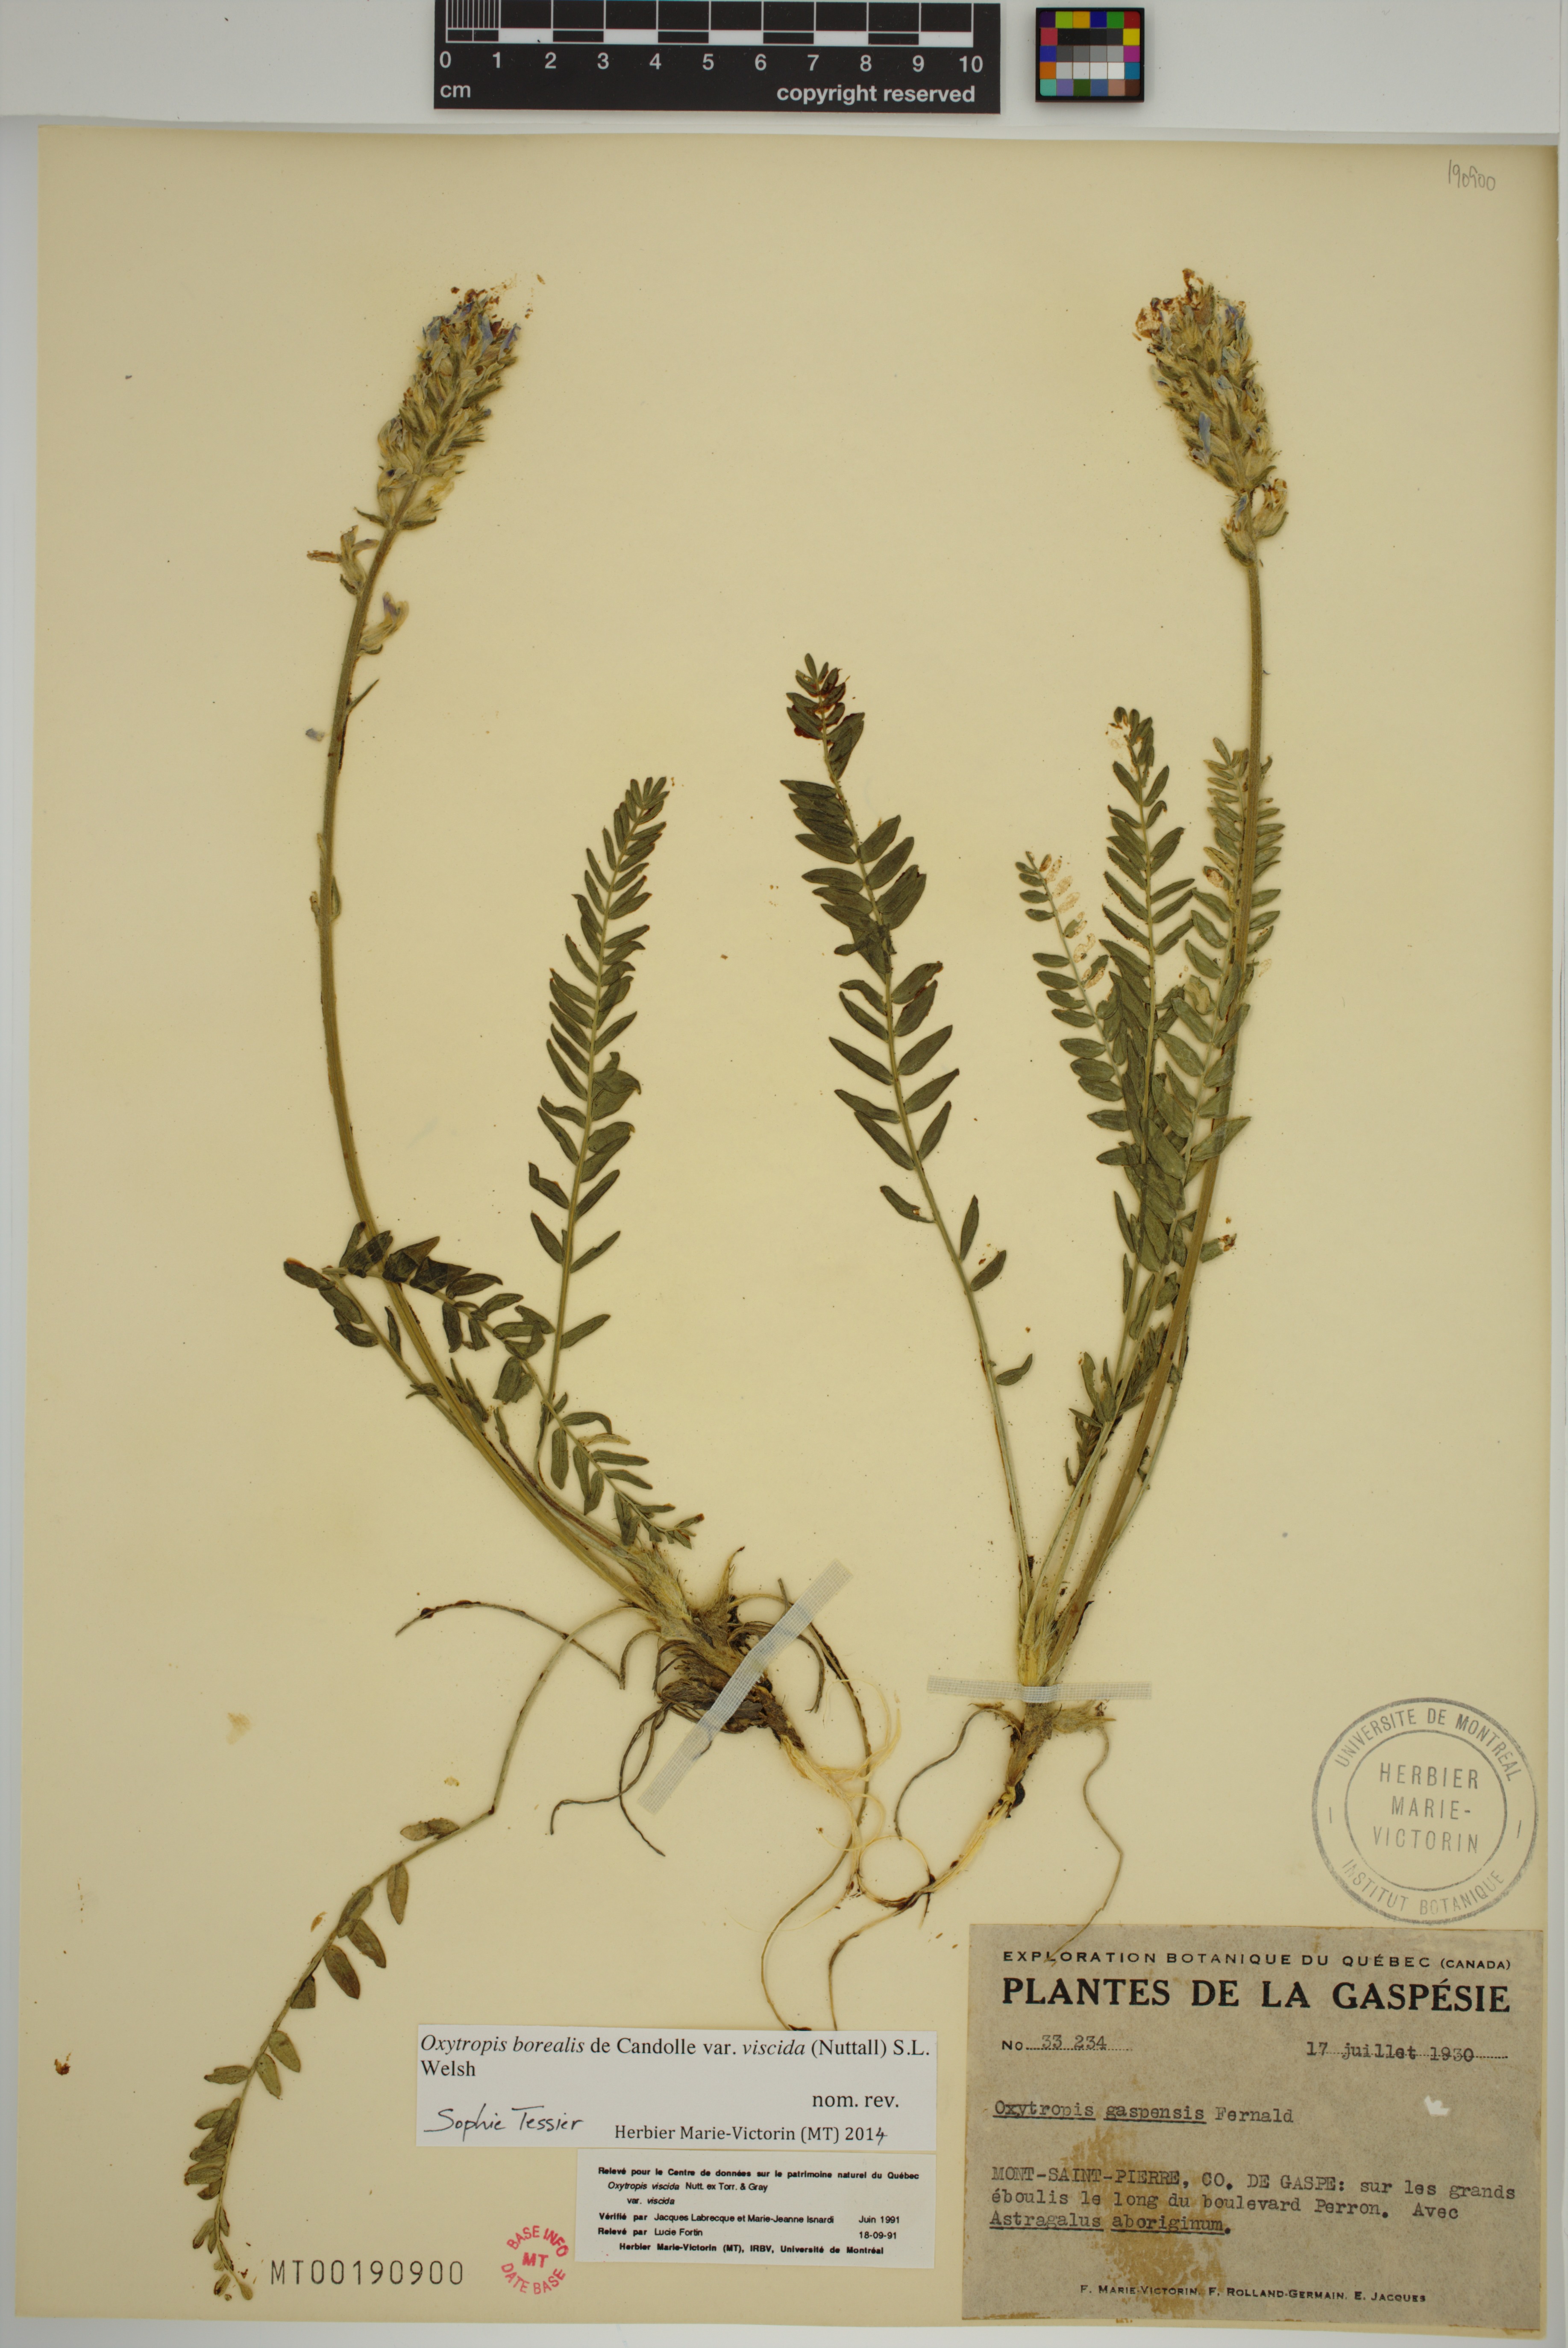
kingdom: Plantae
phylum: Tracheophyta
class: Magnoliopsida
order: Fabales
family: Fabaceae
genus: Oxytropis
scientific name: Oxytropis borealis
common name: Boreal locoweed
